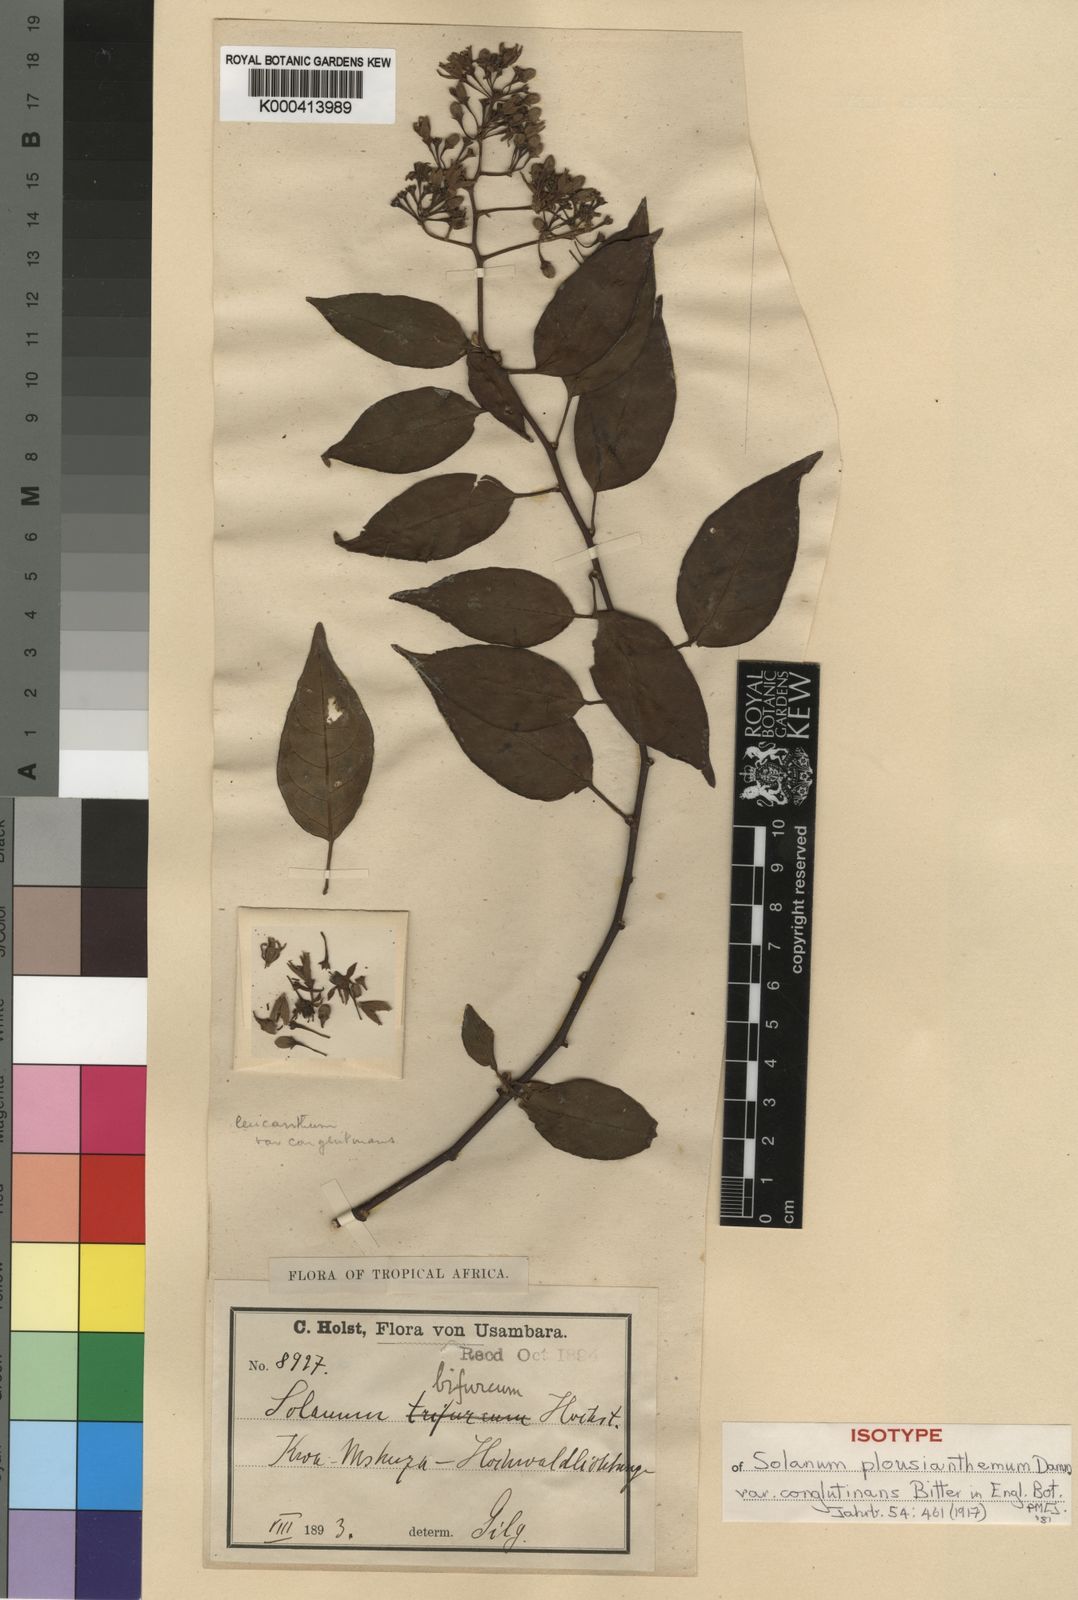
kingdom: Plantae
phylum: Tracheophyta
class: Magnoliopsida
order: Solanales
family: Solanaceae
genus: Solanum
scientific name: Solanum terminale
